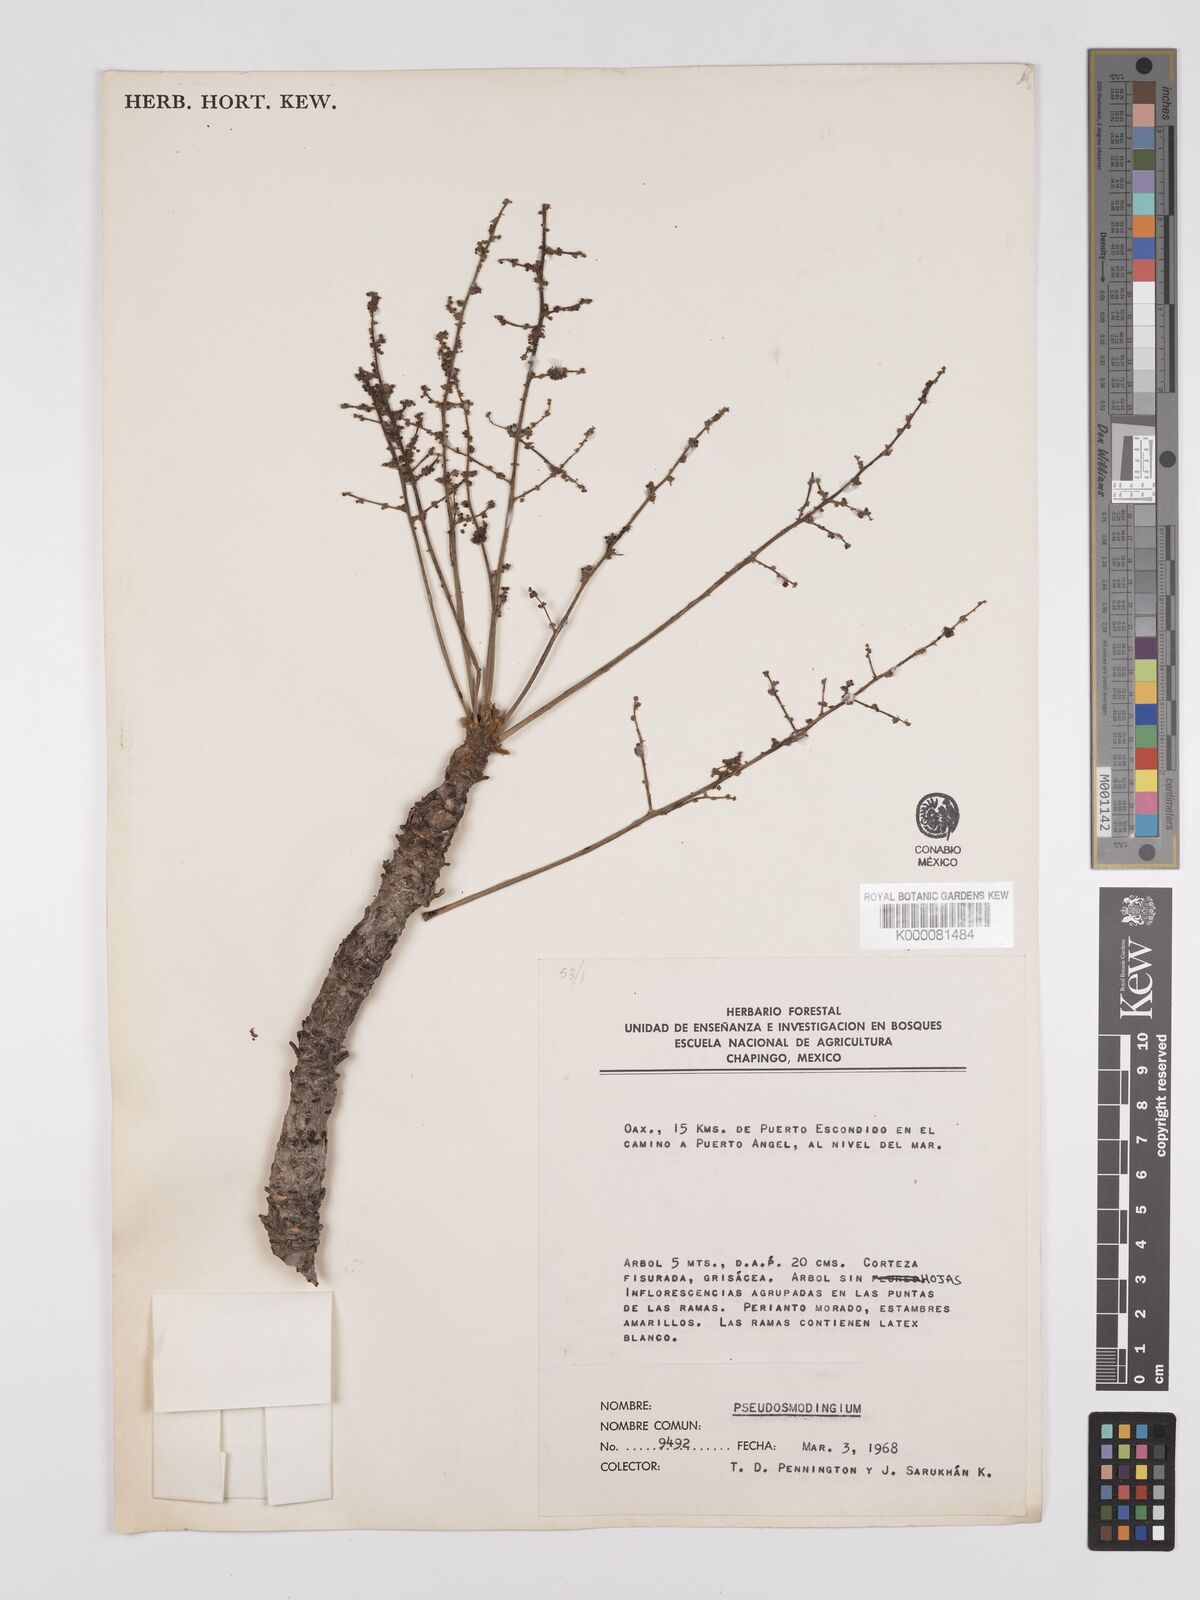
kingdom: Plantae
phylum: Tracheophyta
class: Magnoliopsida
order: Sapindales
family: Anacardiaceae
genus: Pseudosmodingium
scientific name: Pseudosmodingium
